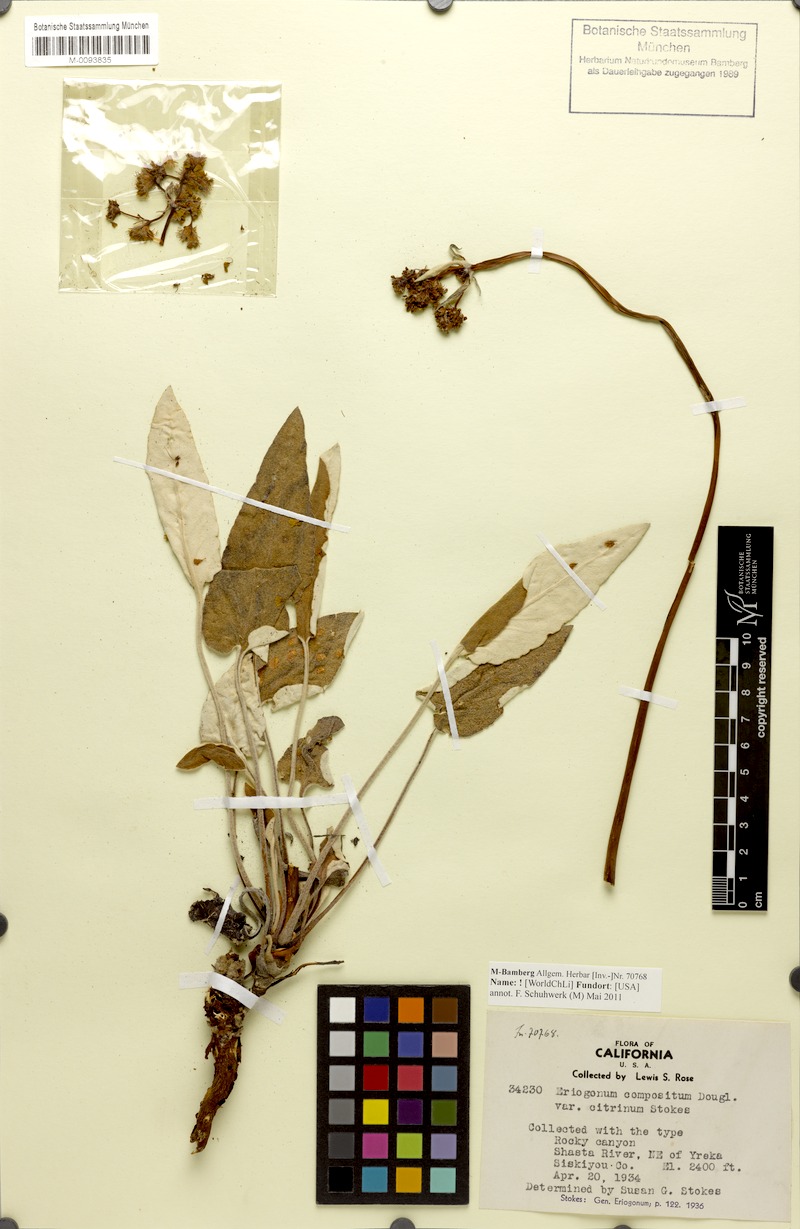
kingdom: Plantae
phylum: Tracheophyta
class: Magnoliopsida
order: Caryophyllales
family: Polygonaceae
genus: Eriogonum
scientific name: Eriogonum compositum
